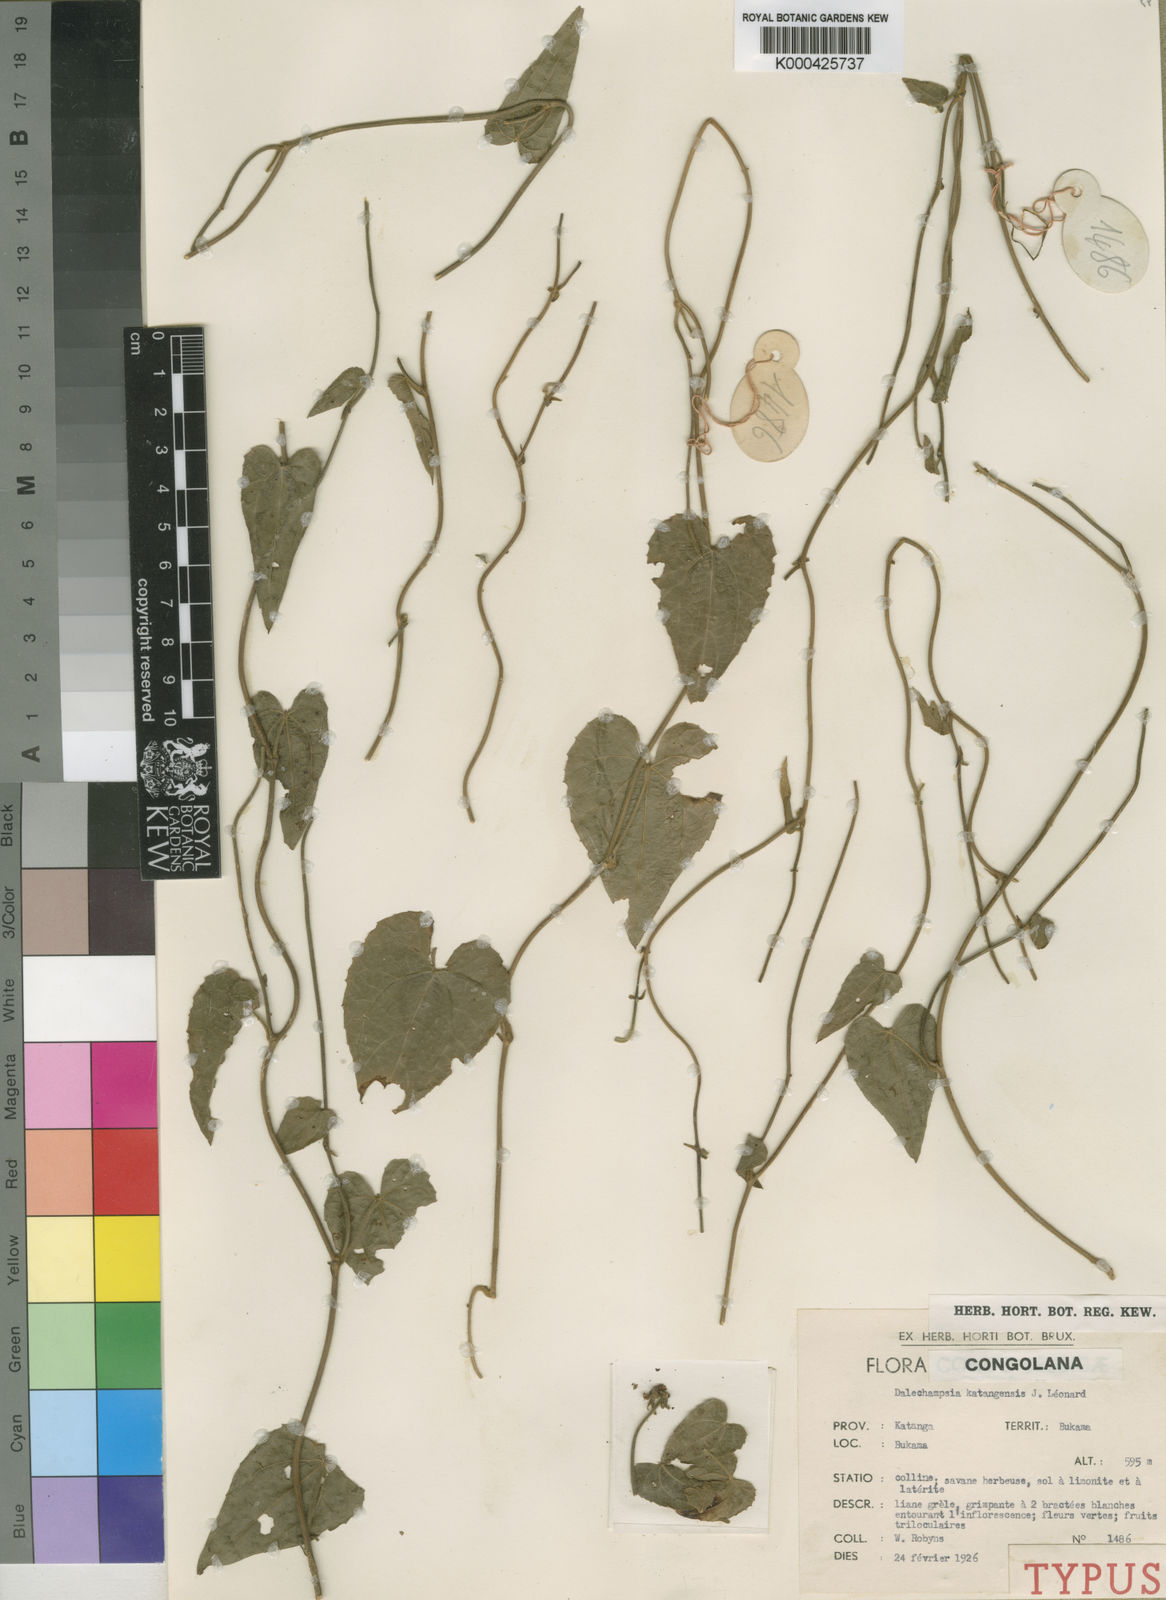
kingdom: Plantae
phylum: Tracheophyta
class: Magnoliopsida
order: Malpighiales
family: Euphorbiaceae
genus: Dalechampia
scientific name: Dalechampia
